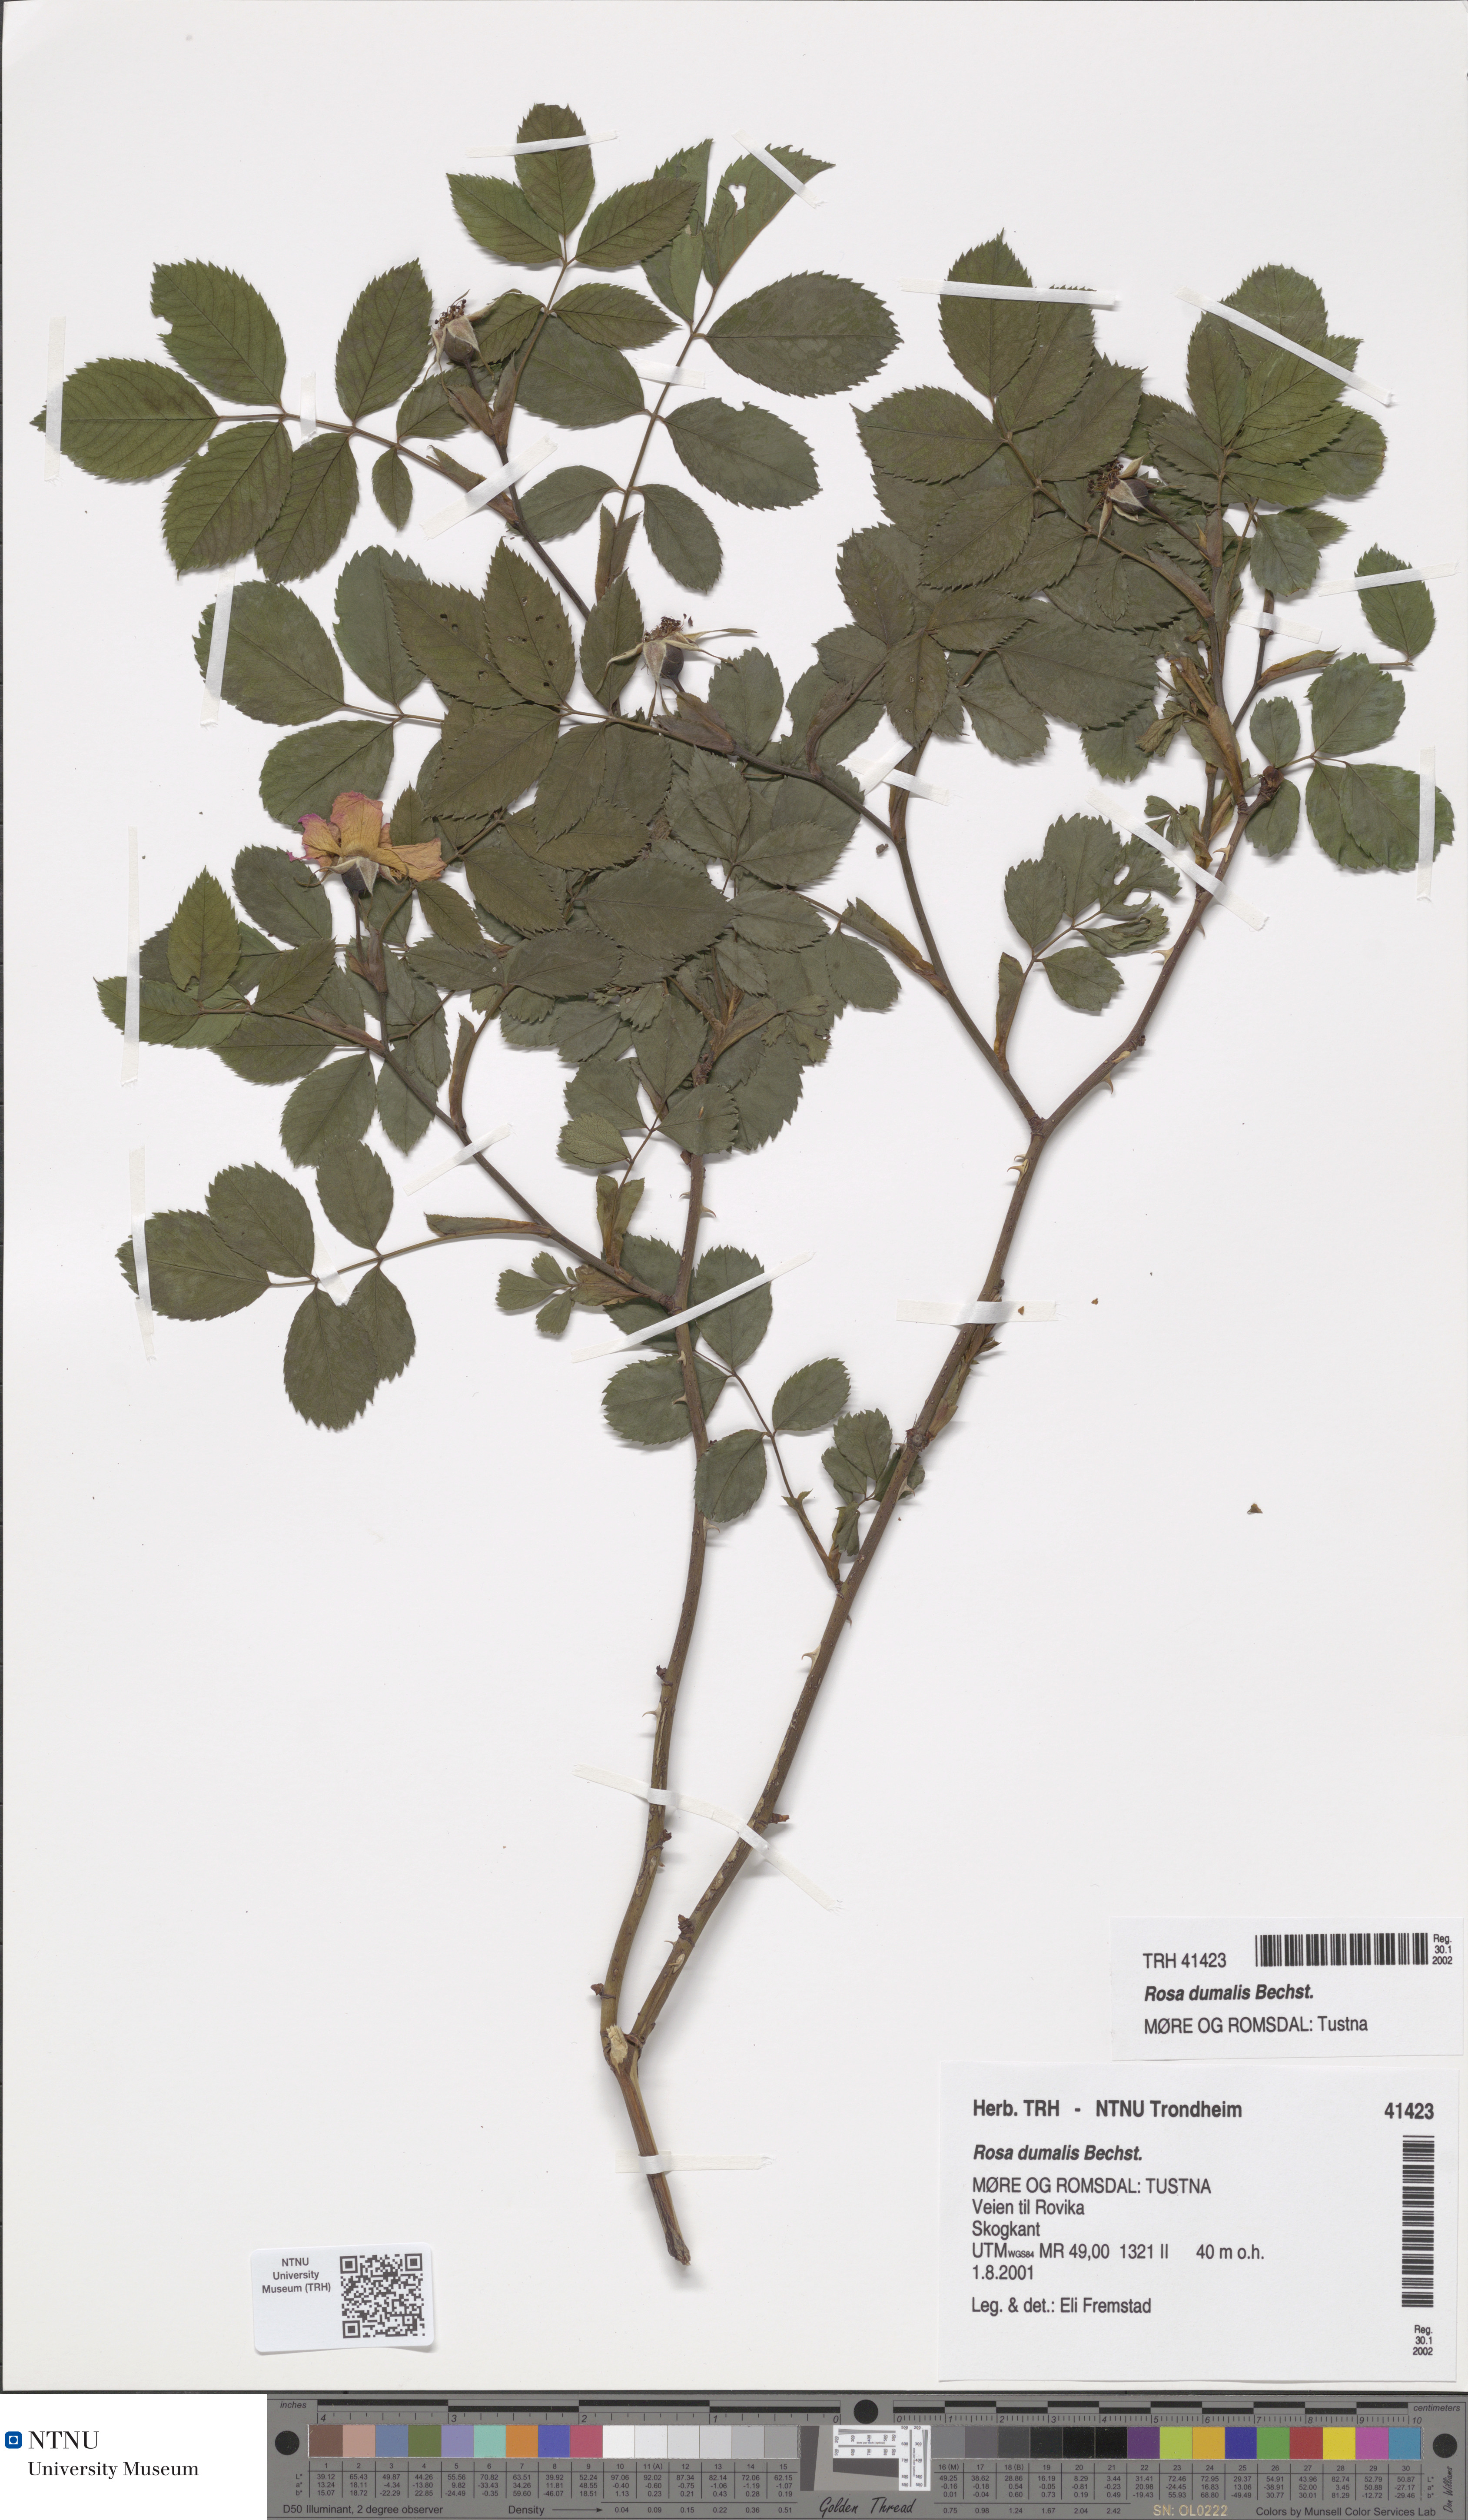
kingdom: Plantae
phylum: Tracheophyta
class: Magnoliopsida
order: Rosales
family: Rosaceae
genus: Rosa
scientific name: Rosa dumalis
